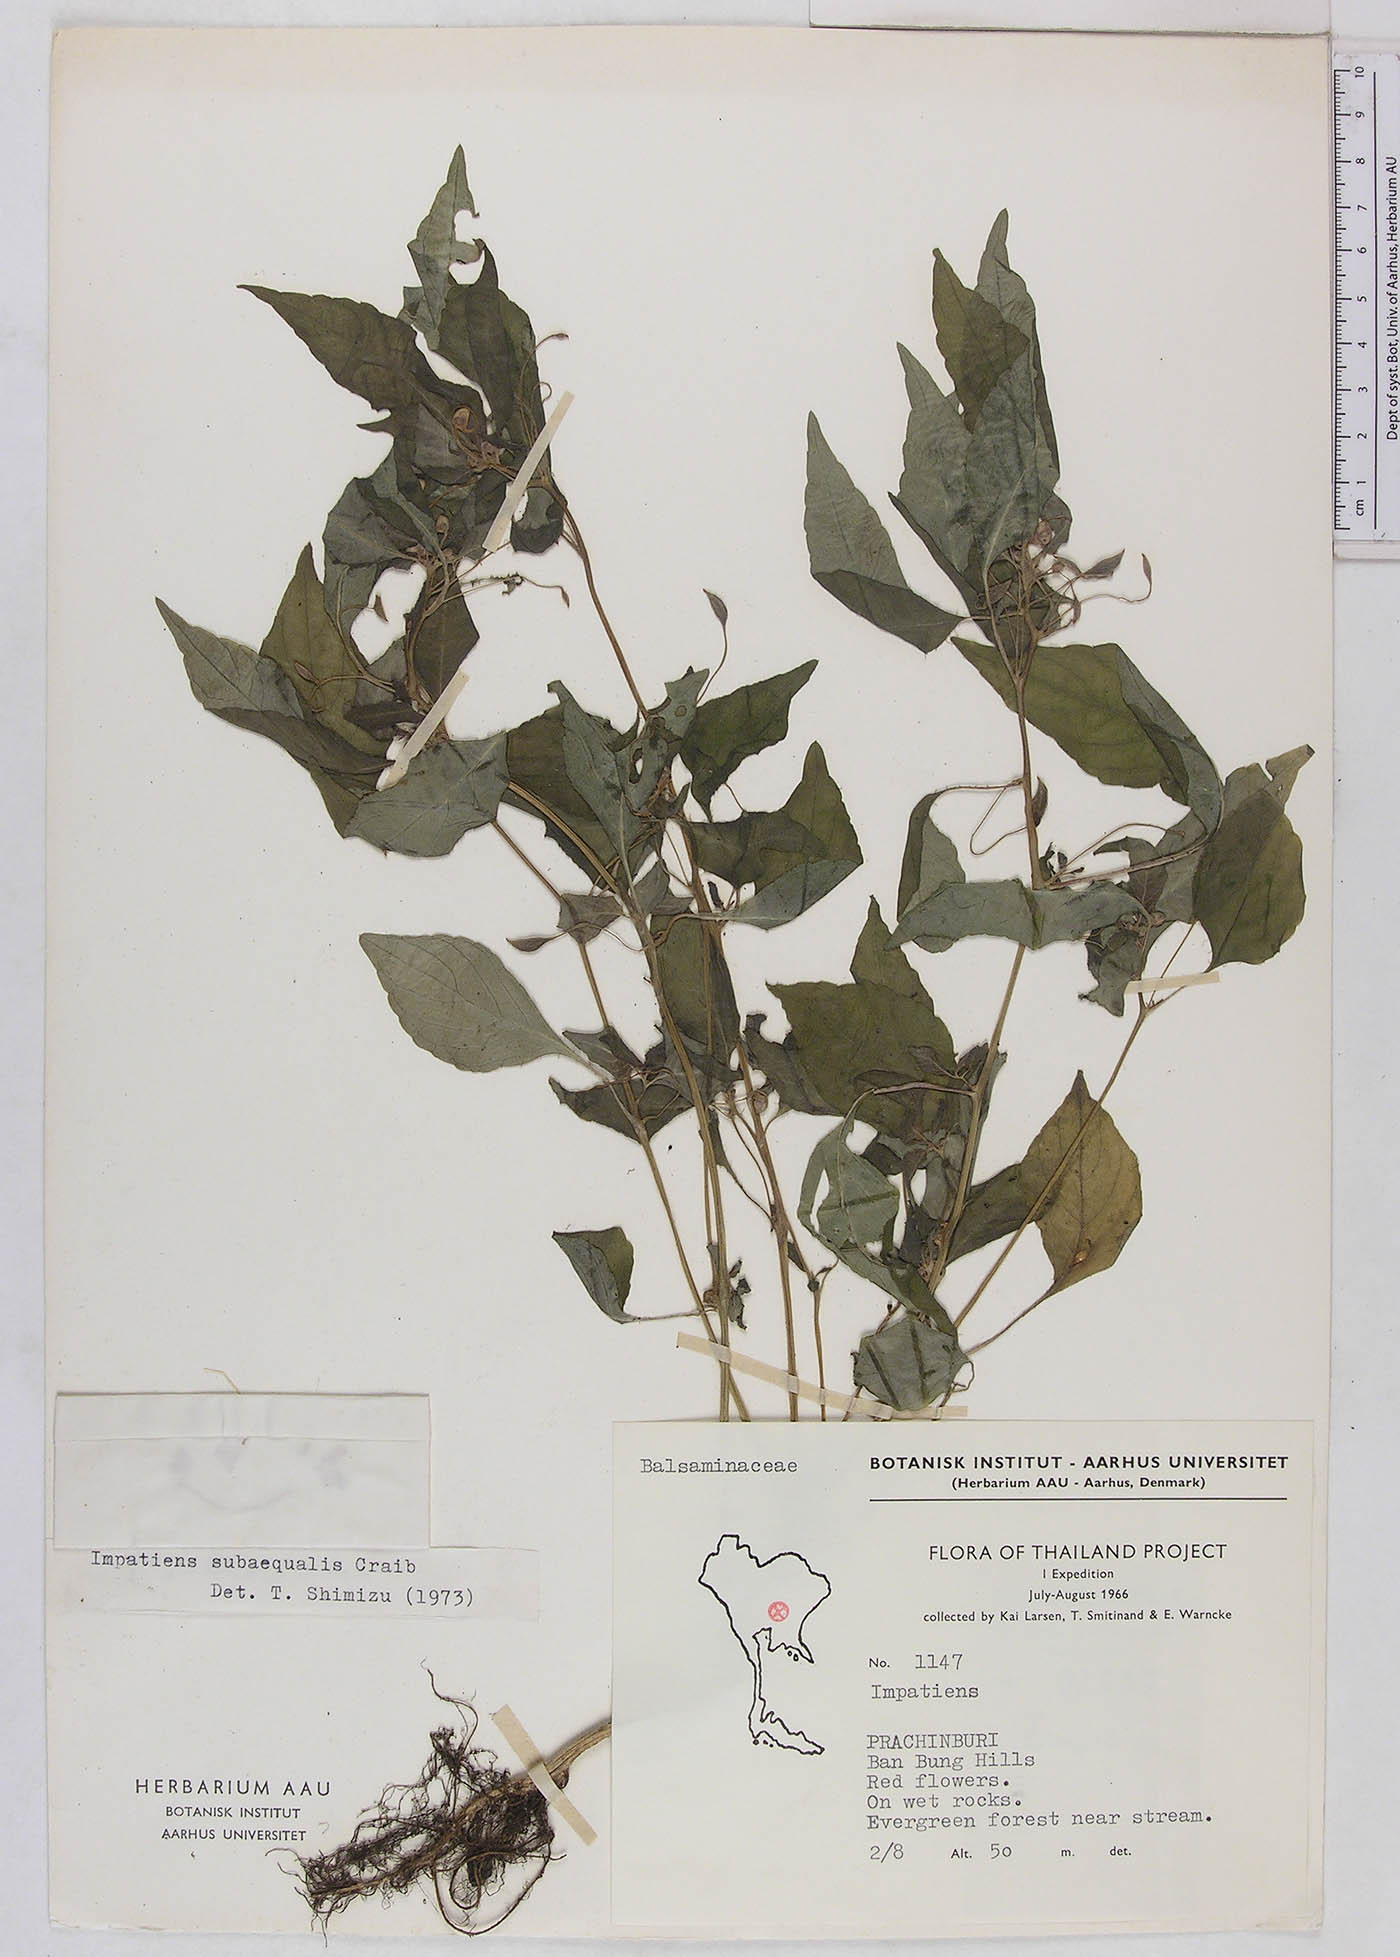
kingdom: Plantae
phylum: Tracheophyta
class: Magnoliopsida
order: Ericales
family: Balsaminaceae
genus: Impatiens
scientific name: Impatiens violiflora
